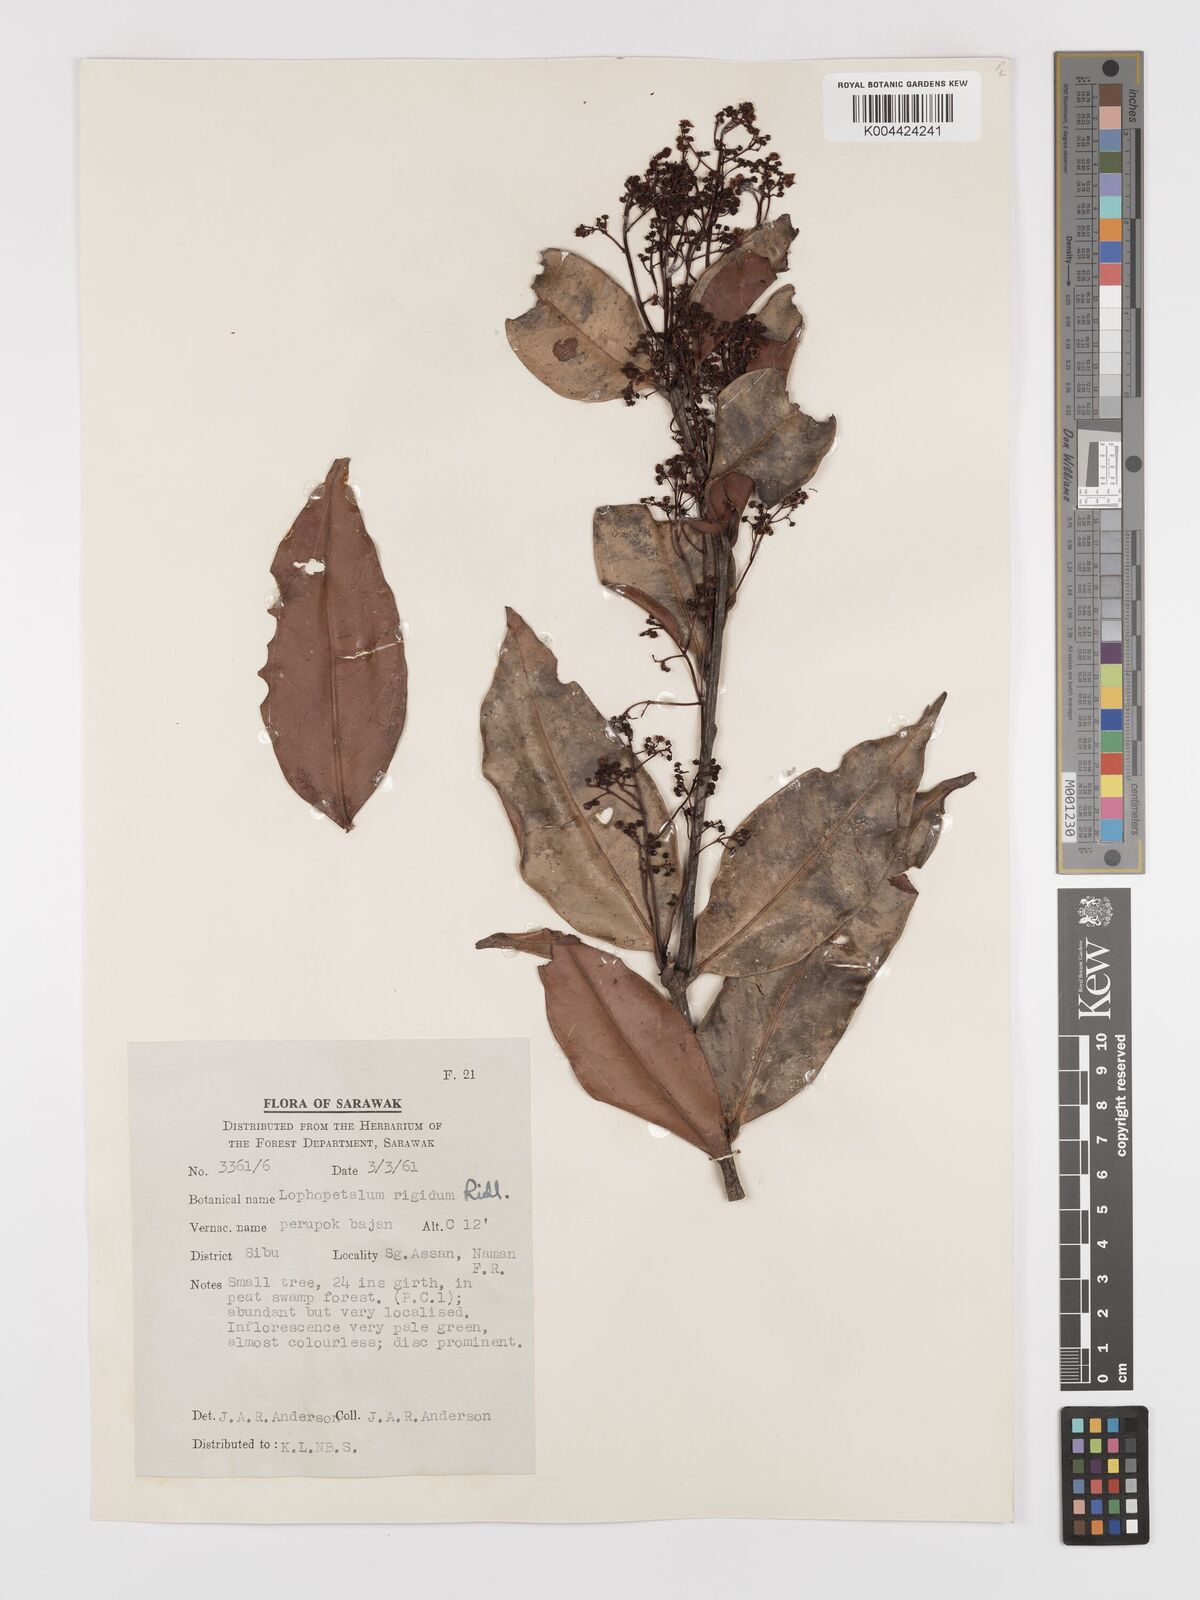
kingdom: Plantae
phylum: Tracheophyta
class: Magnoliopsida
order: Celastrales
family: Celastraceae
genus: Lophopetalum
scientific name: Lophopetalum rigidum
